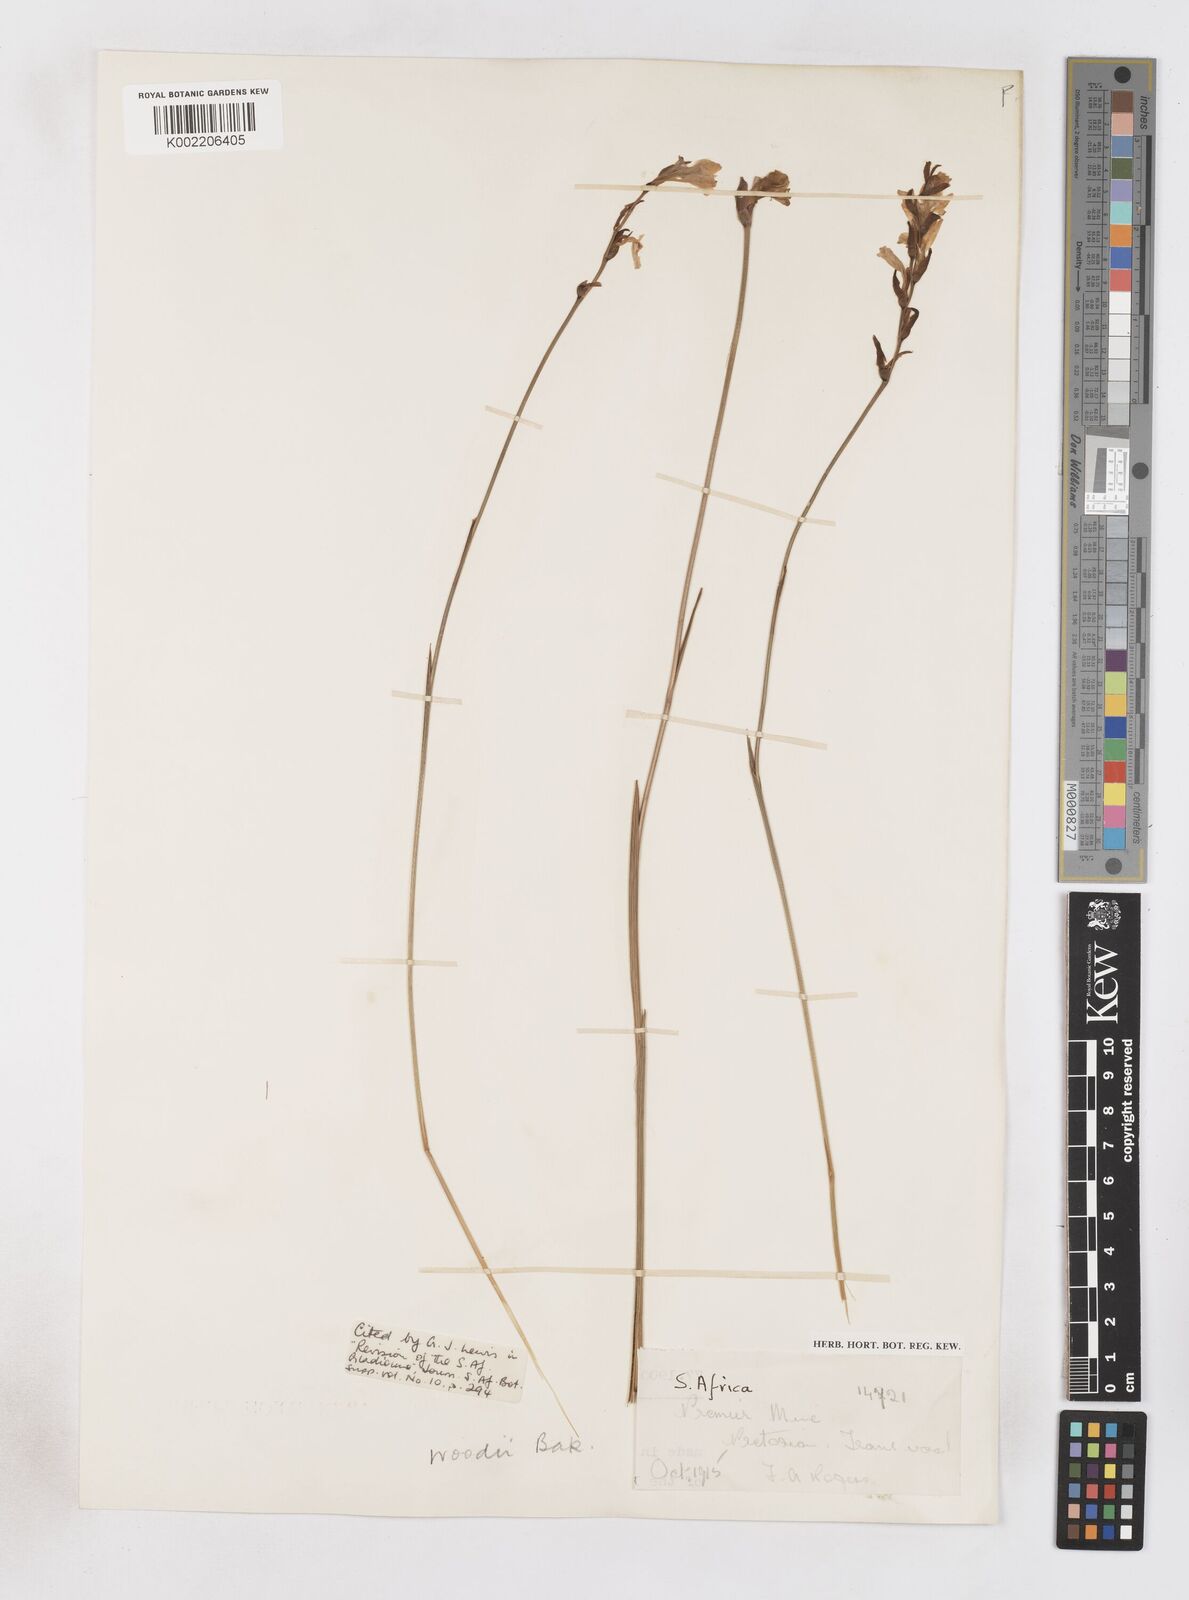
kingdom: Plantae
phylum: Tracheophyta
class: Liliopsida
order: Asparagales
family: Iridaceae
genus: Gladiolus
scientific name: Gladiolus woodii
